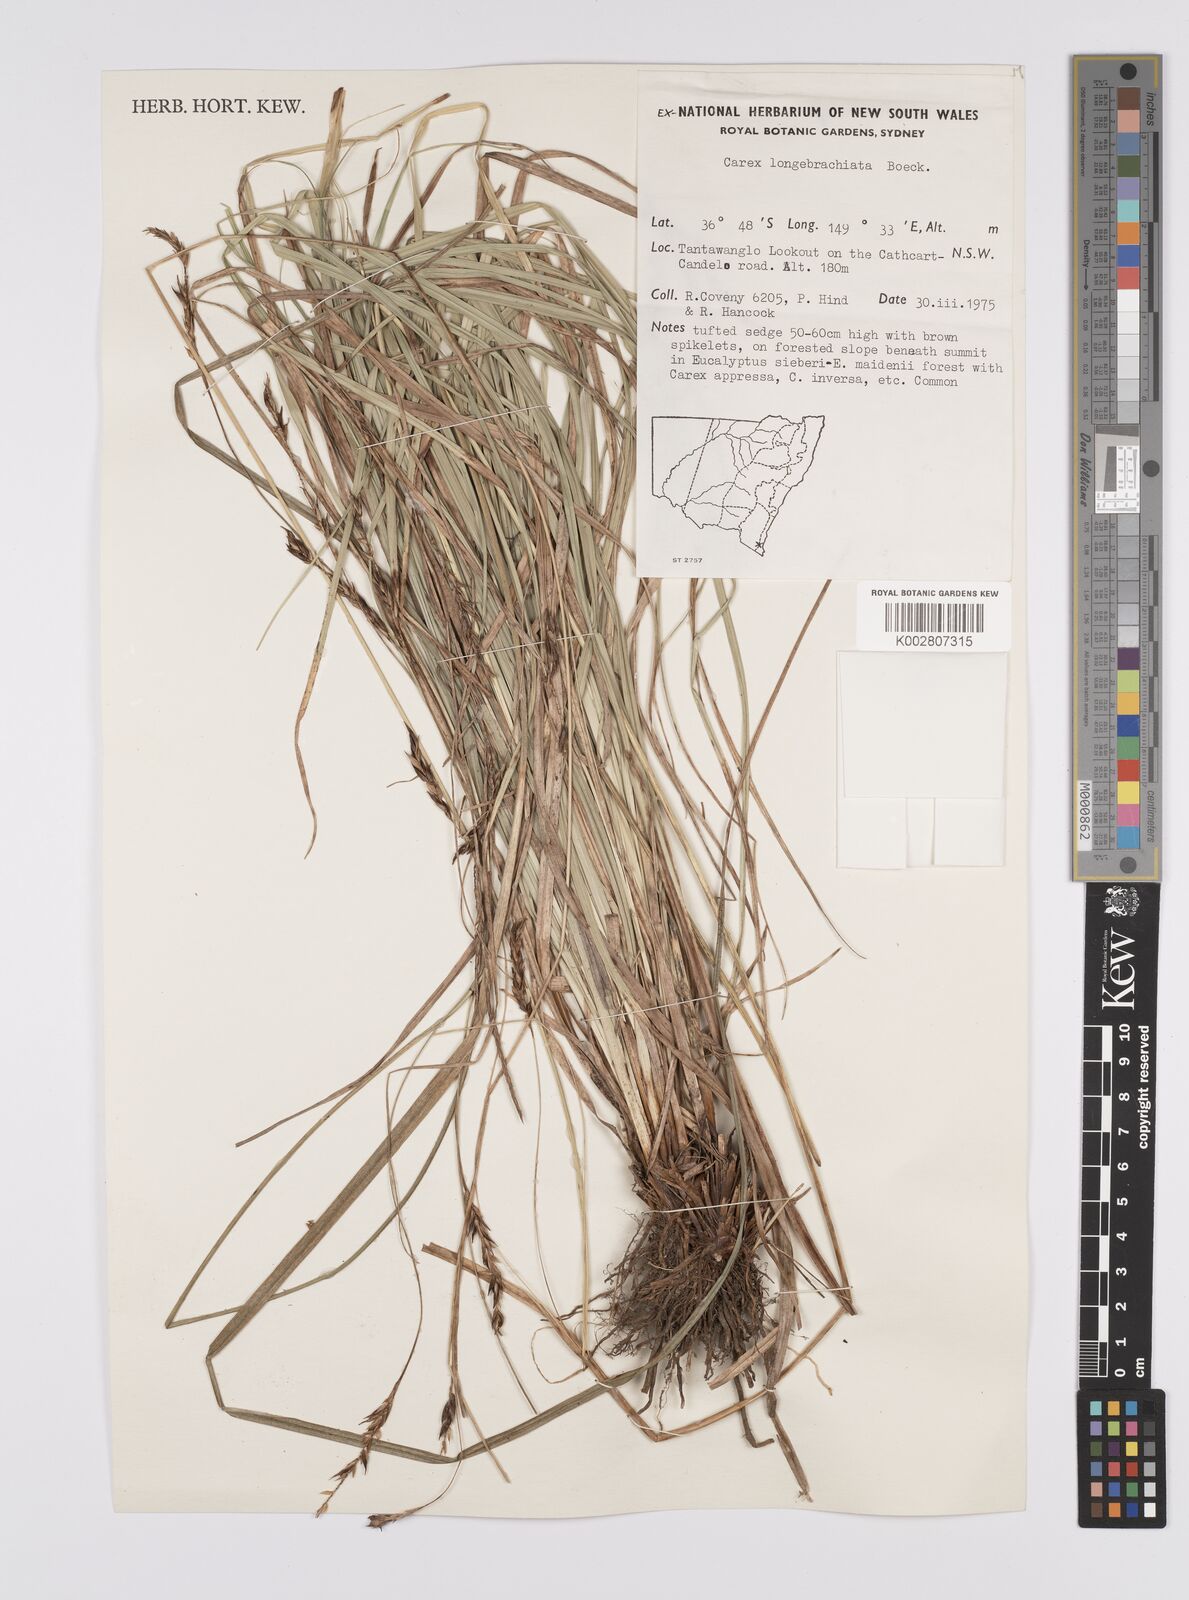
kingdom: Plantae
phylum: Tracheophyta
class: Liliopsida
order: Poales
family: Cyperaceae
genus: Carex
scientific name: Carex pseudocyperus
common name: Cyperus sedge
